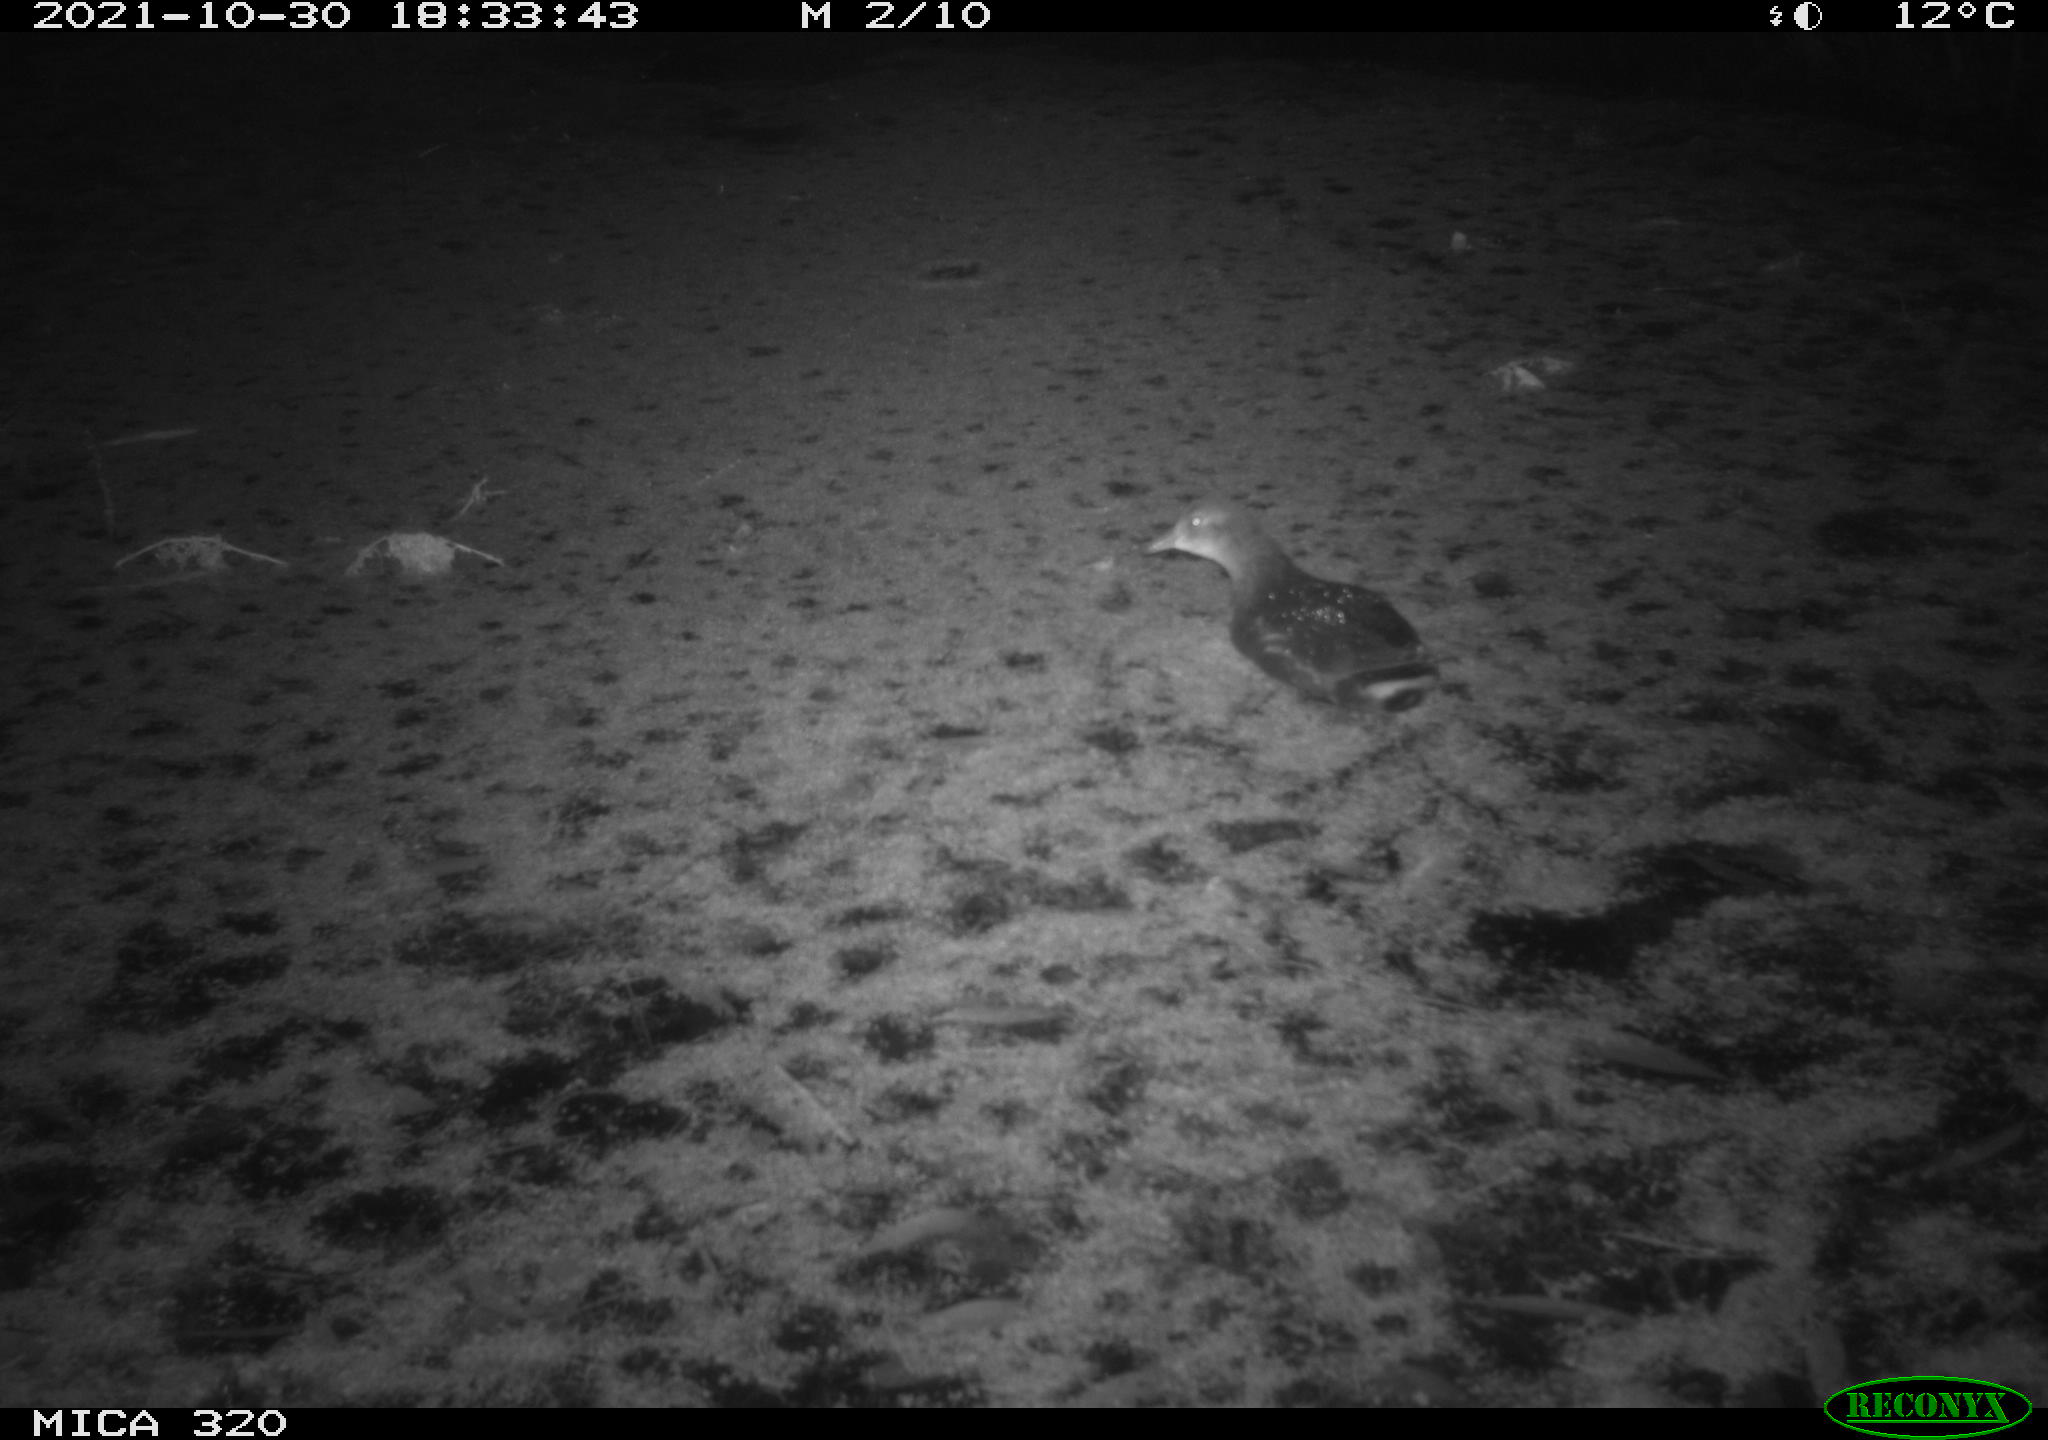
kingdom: Animalia
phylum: Chordata
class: Aves
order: Gruiformes
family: Rallidae
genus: Gallinula
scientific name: Gallinula chloropus
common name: Common moorhen
